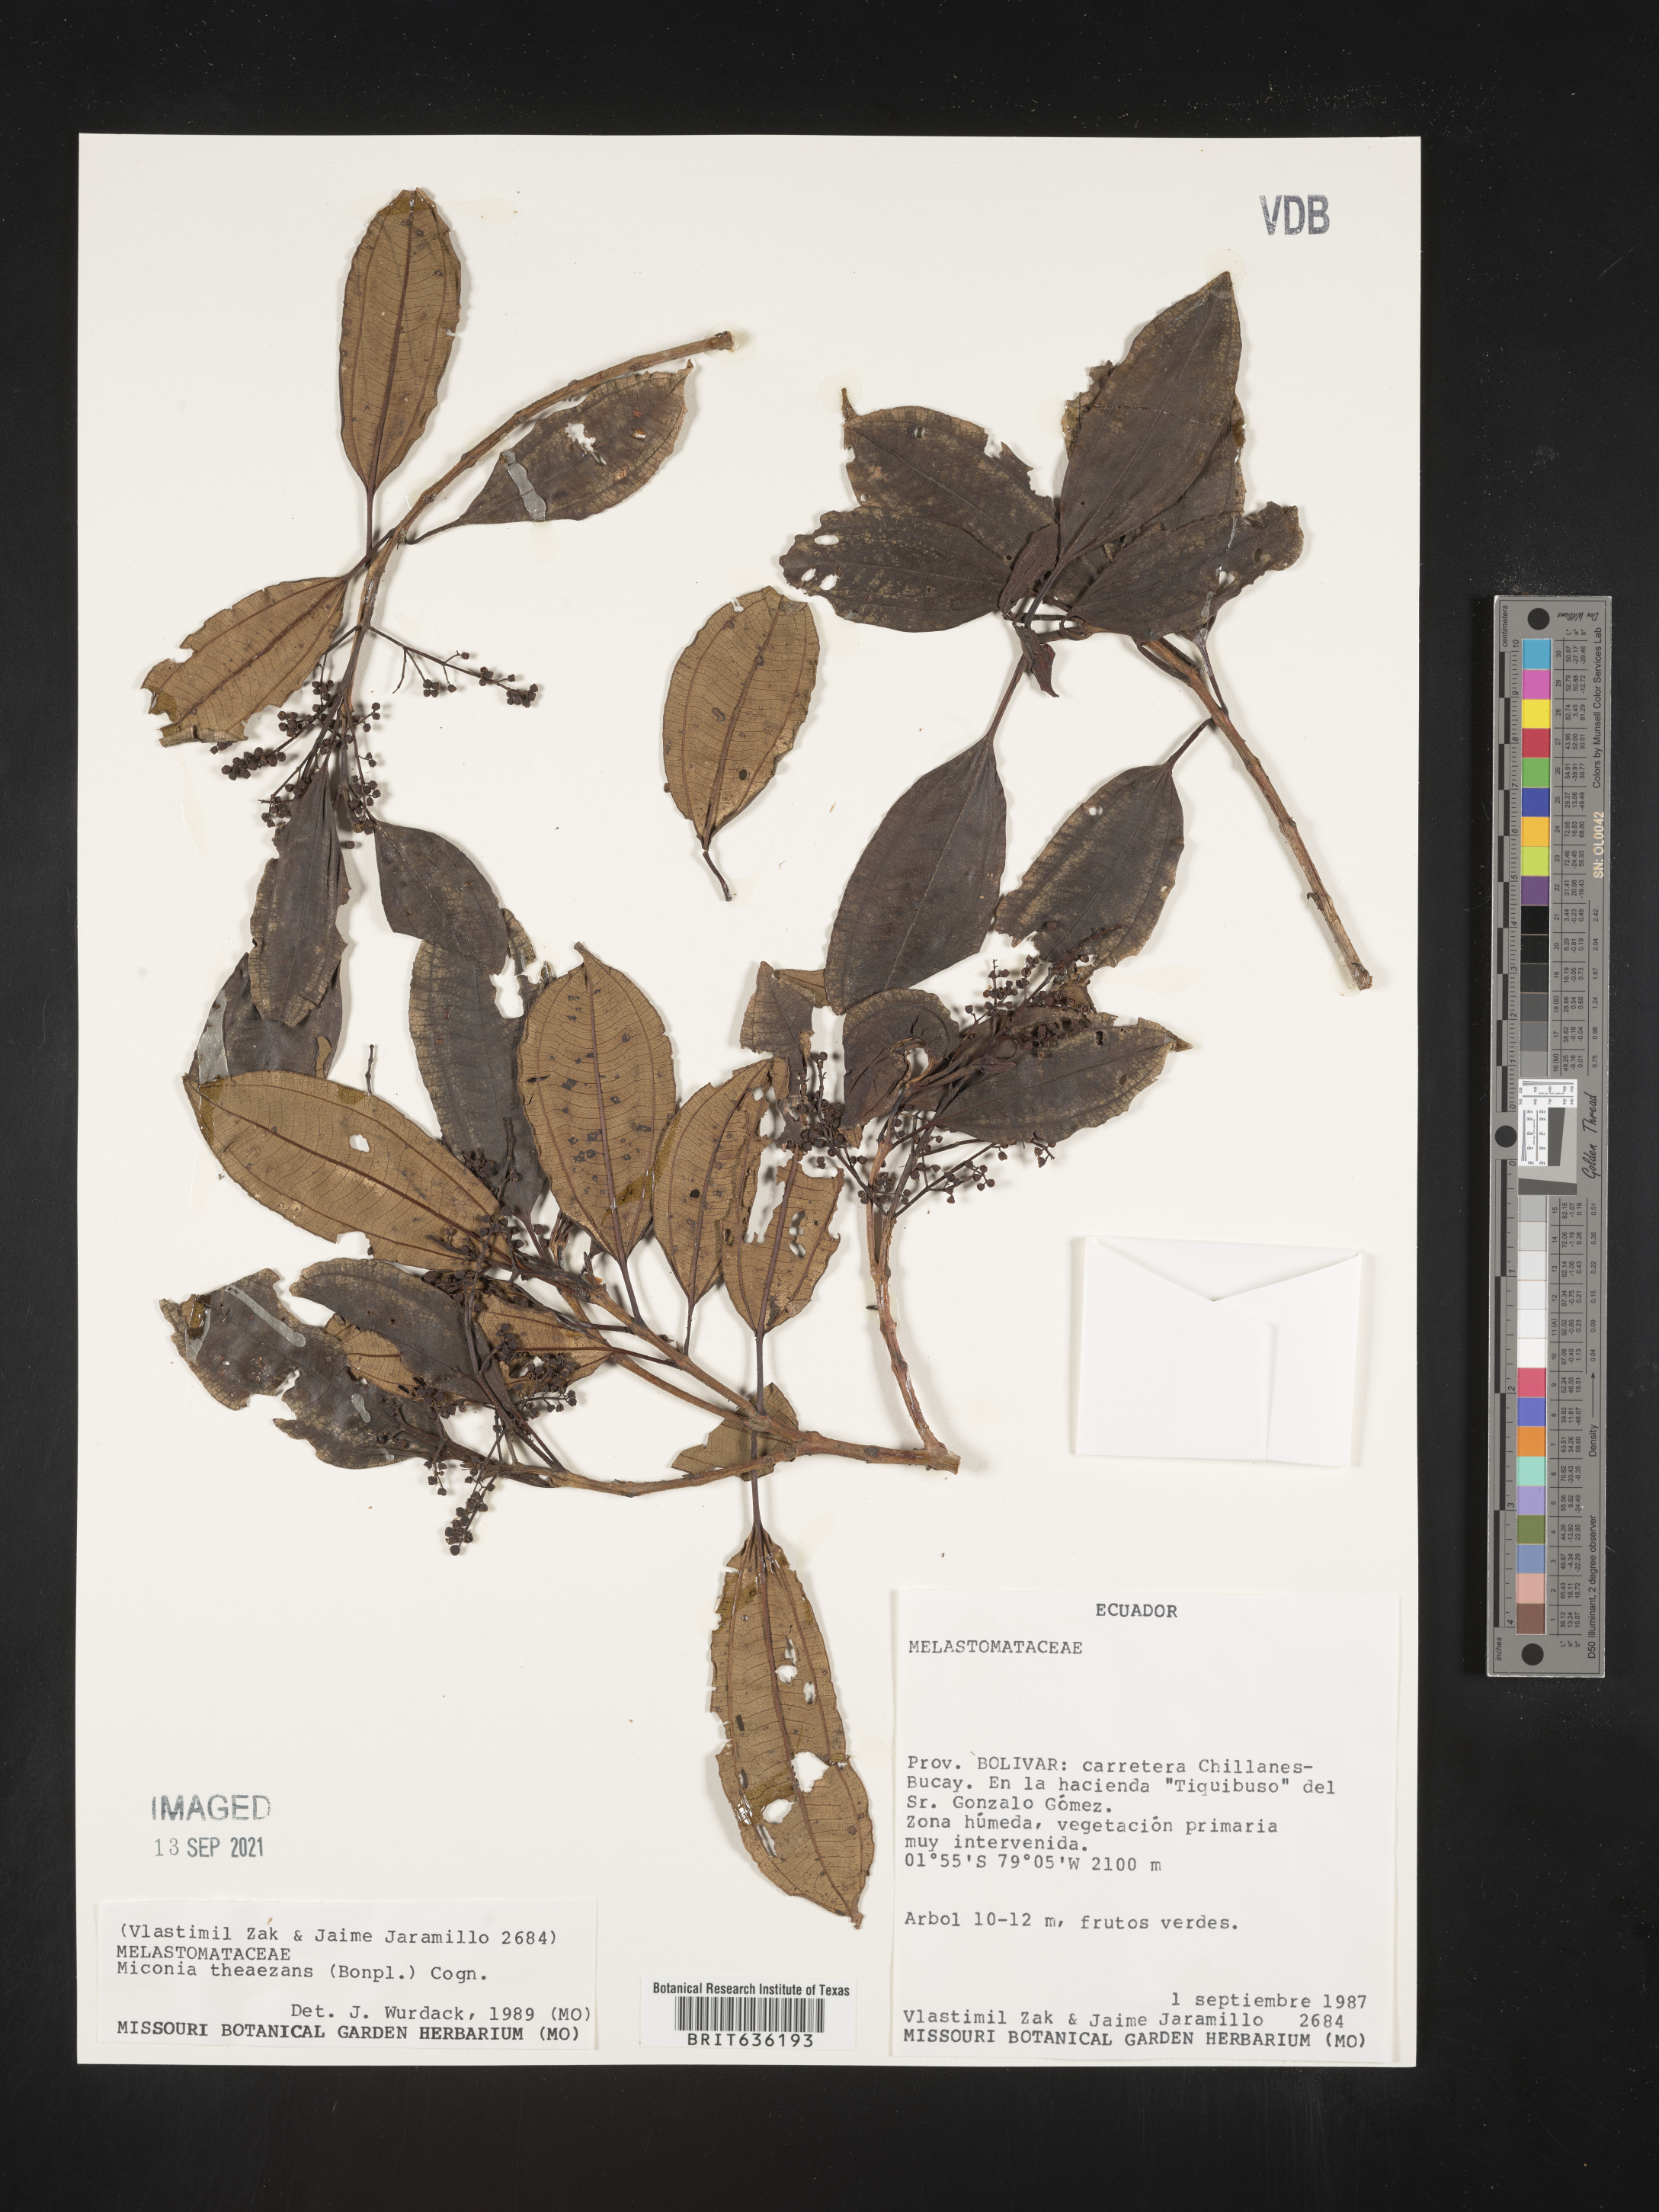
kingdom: Plantae
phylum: Tracheophyta
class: Magnoliopsida
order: Myrtales
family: Melastomataceae
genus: Miconia
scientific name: Miconia
